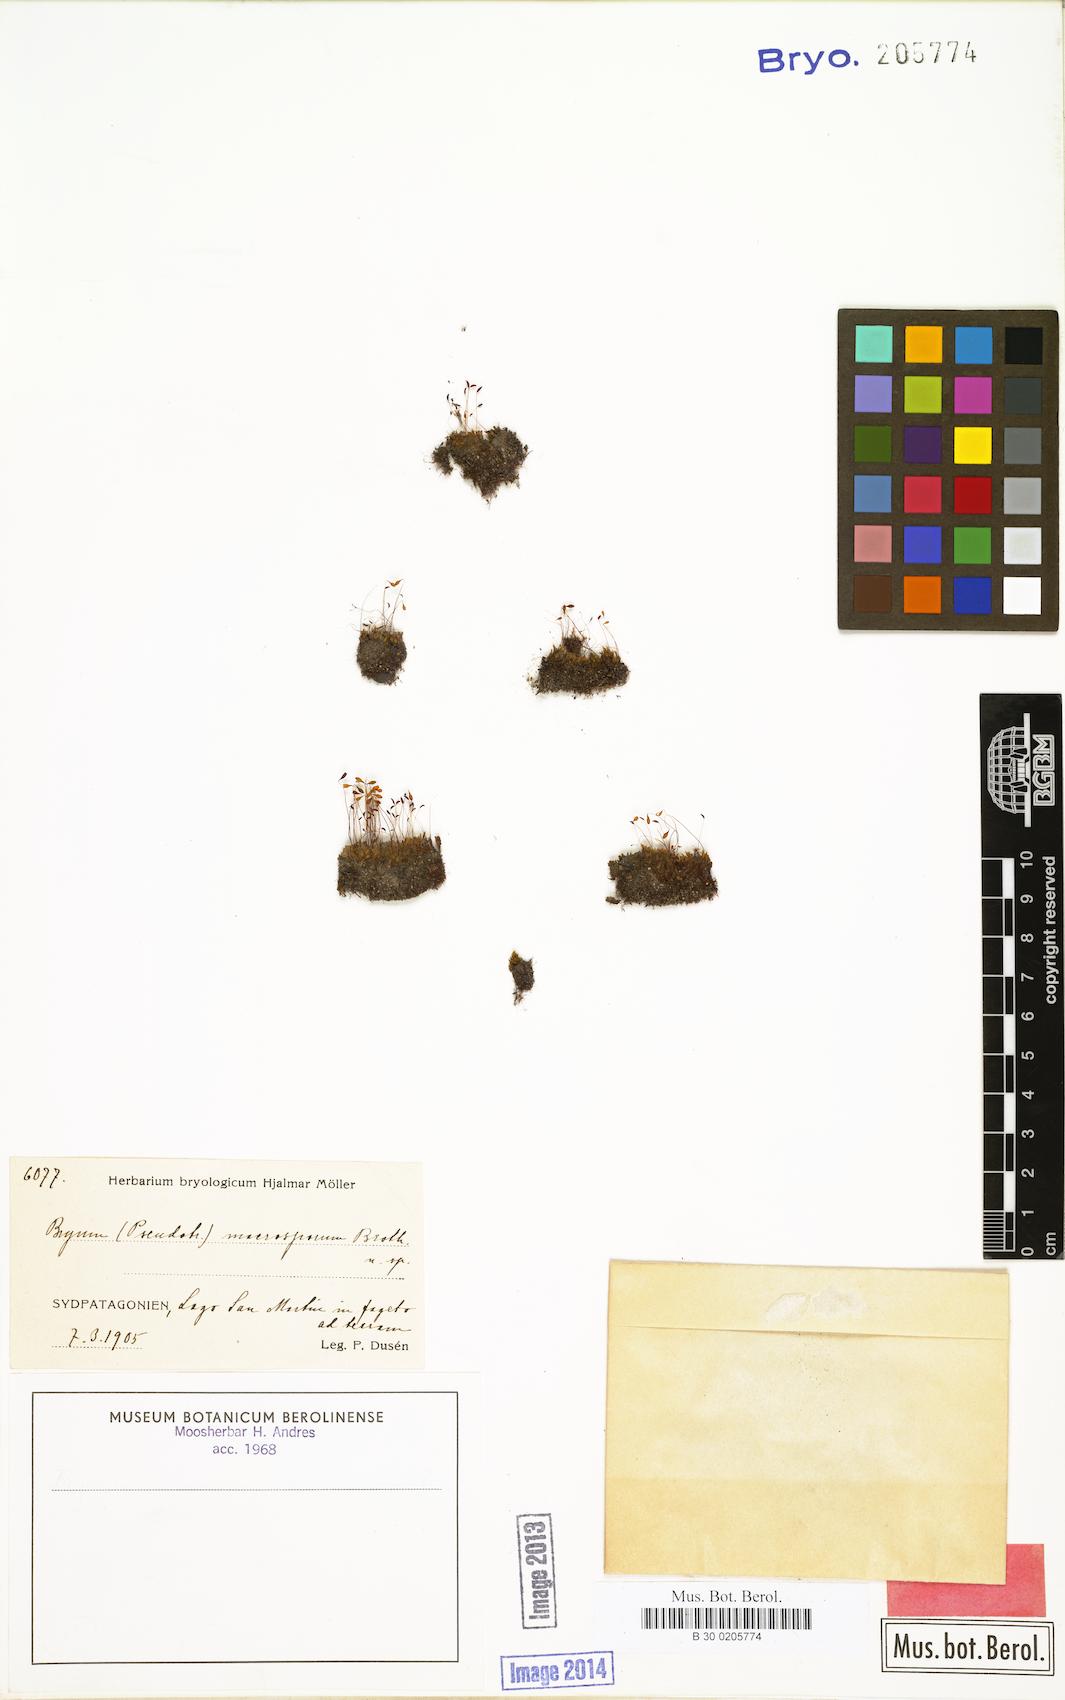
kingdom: Plantae
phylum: Bryophyta
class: Bryopsida
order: Bryales
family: Bryaceae
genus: Ptychostomum
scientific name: Ptychostomum chorizodontum
